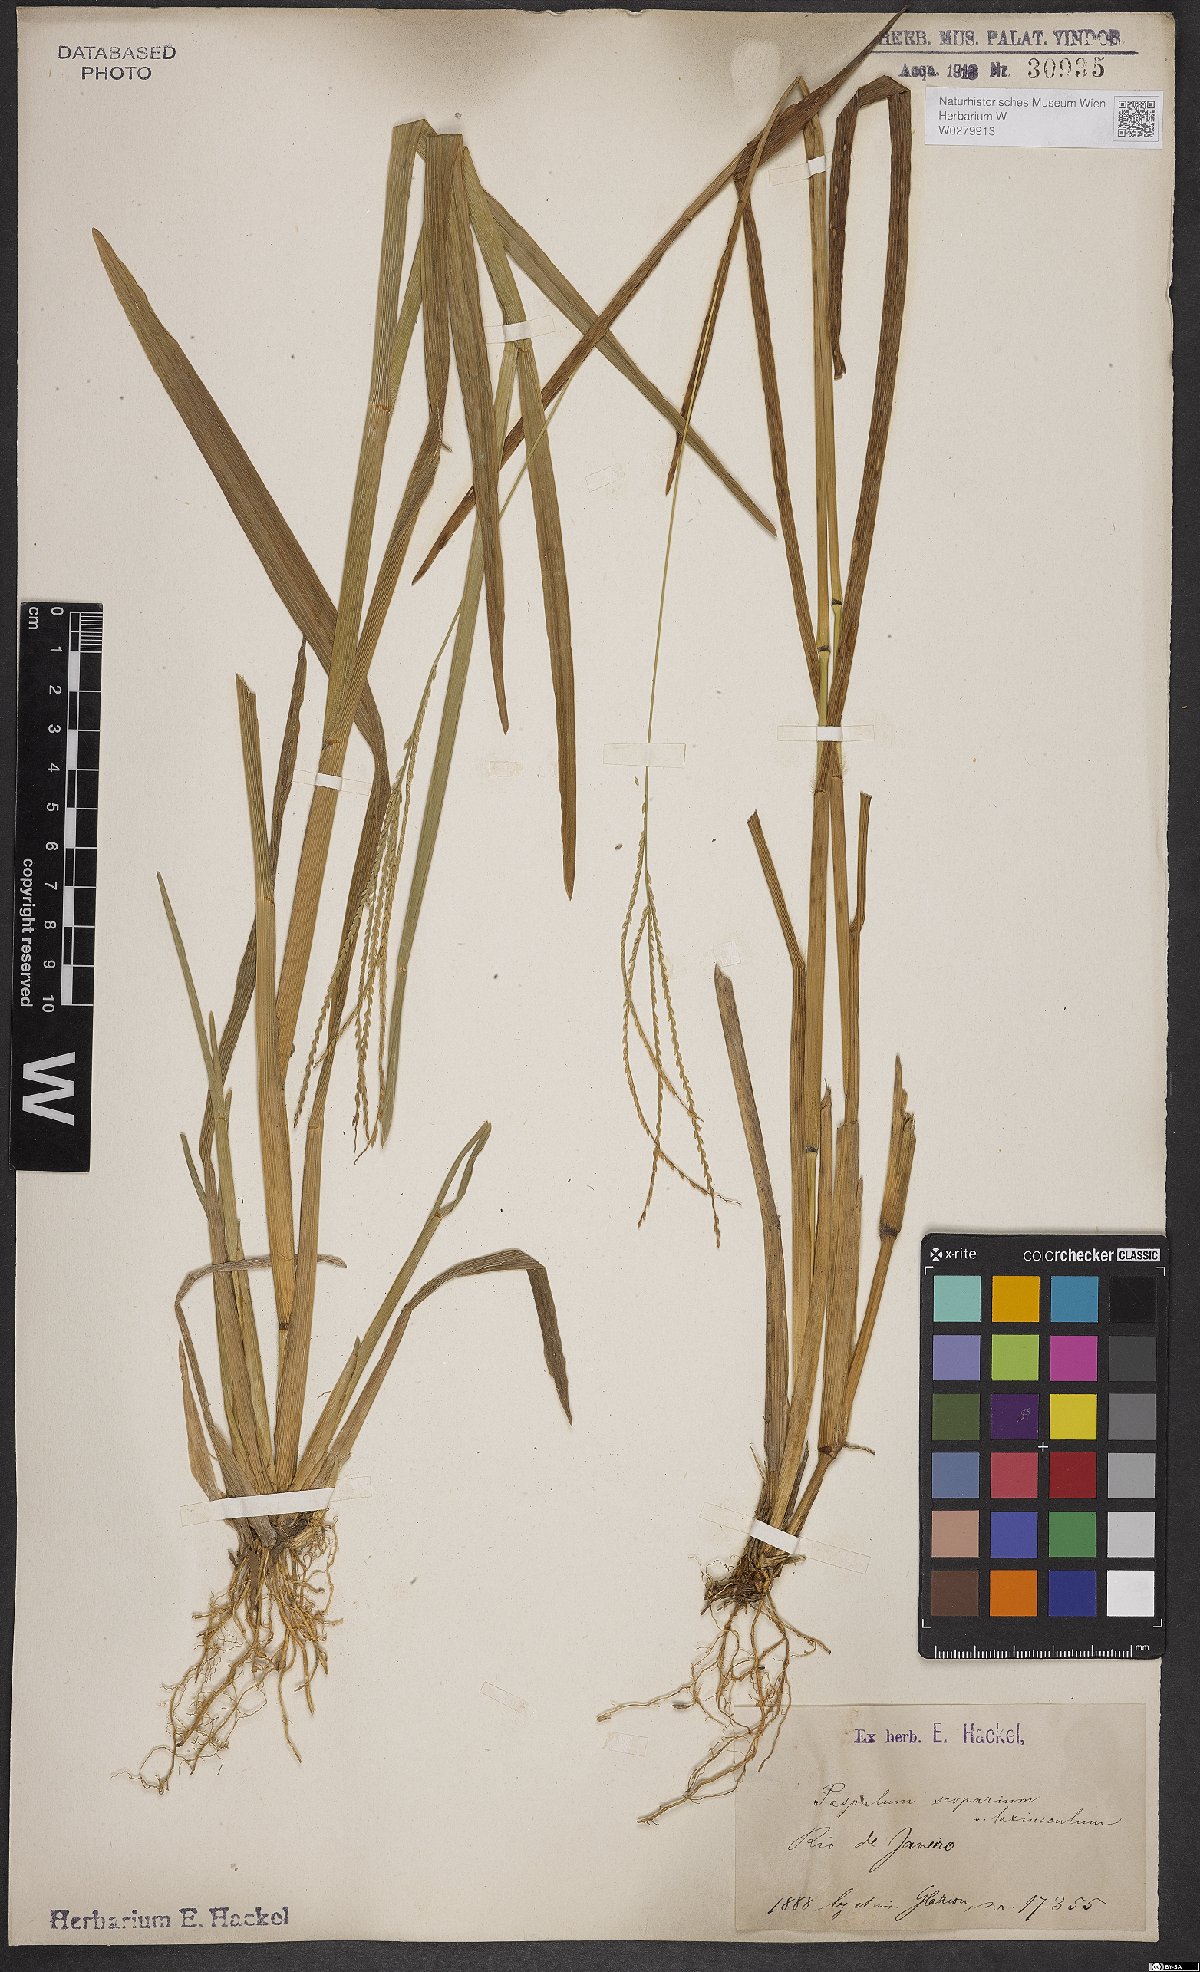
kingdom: Plantae
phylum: Tracheophyta
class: Liliopsida
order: Poales
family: Poaceae
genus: Axonopus
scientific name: Axonopus scoparius
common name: Imperial grass
